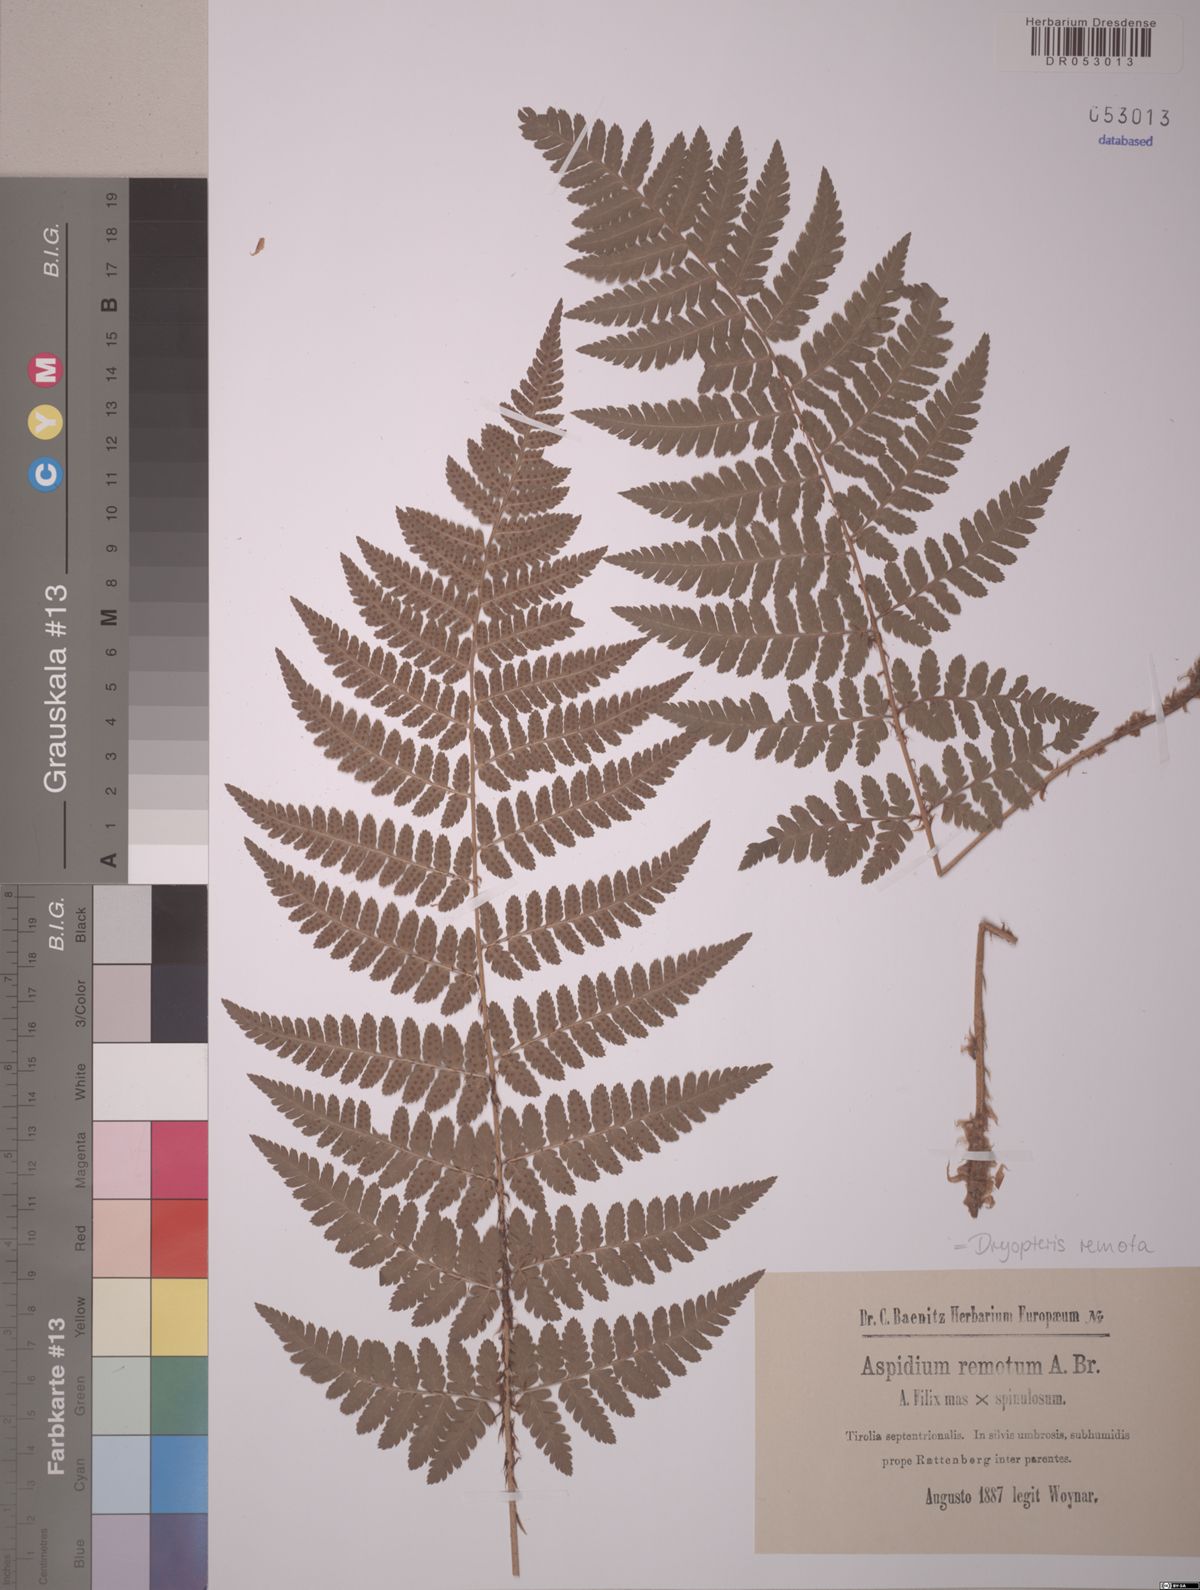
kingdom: Plantae
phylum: Tracheophyta
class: Polypodiopsida
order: Polypodiales
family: Dryopteridaceae
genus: Dryopteris
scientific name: Dryopteris remota
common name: Scaly buckler-fern
